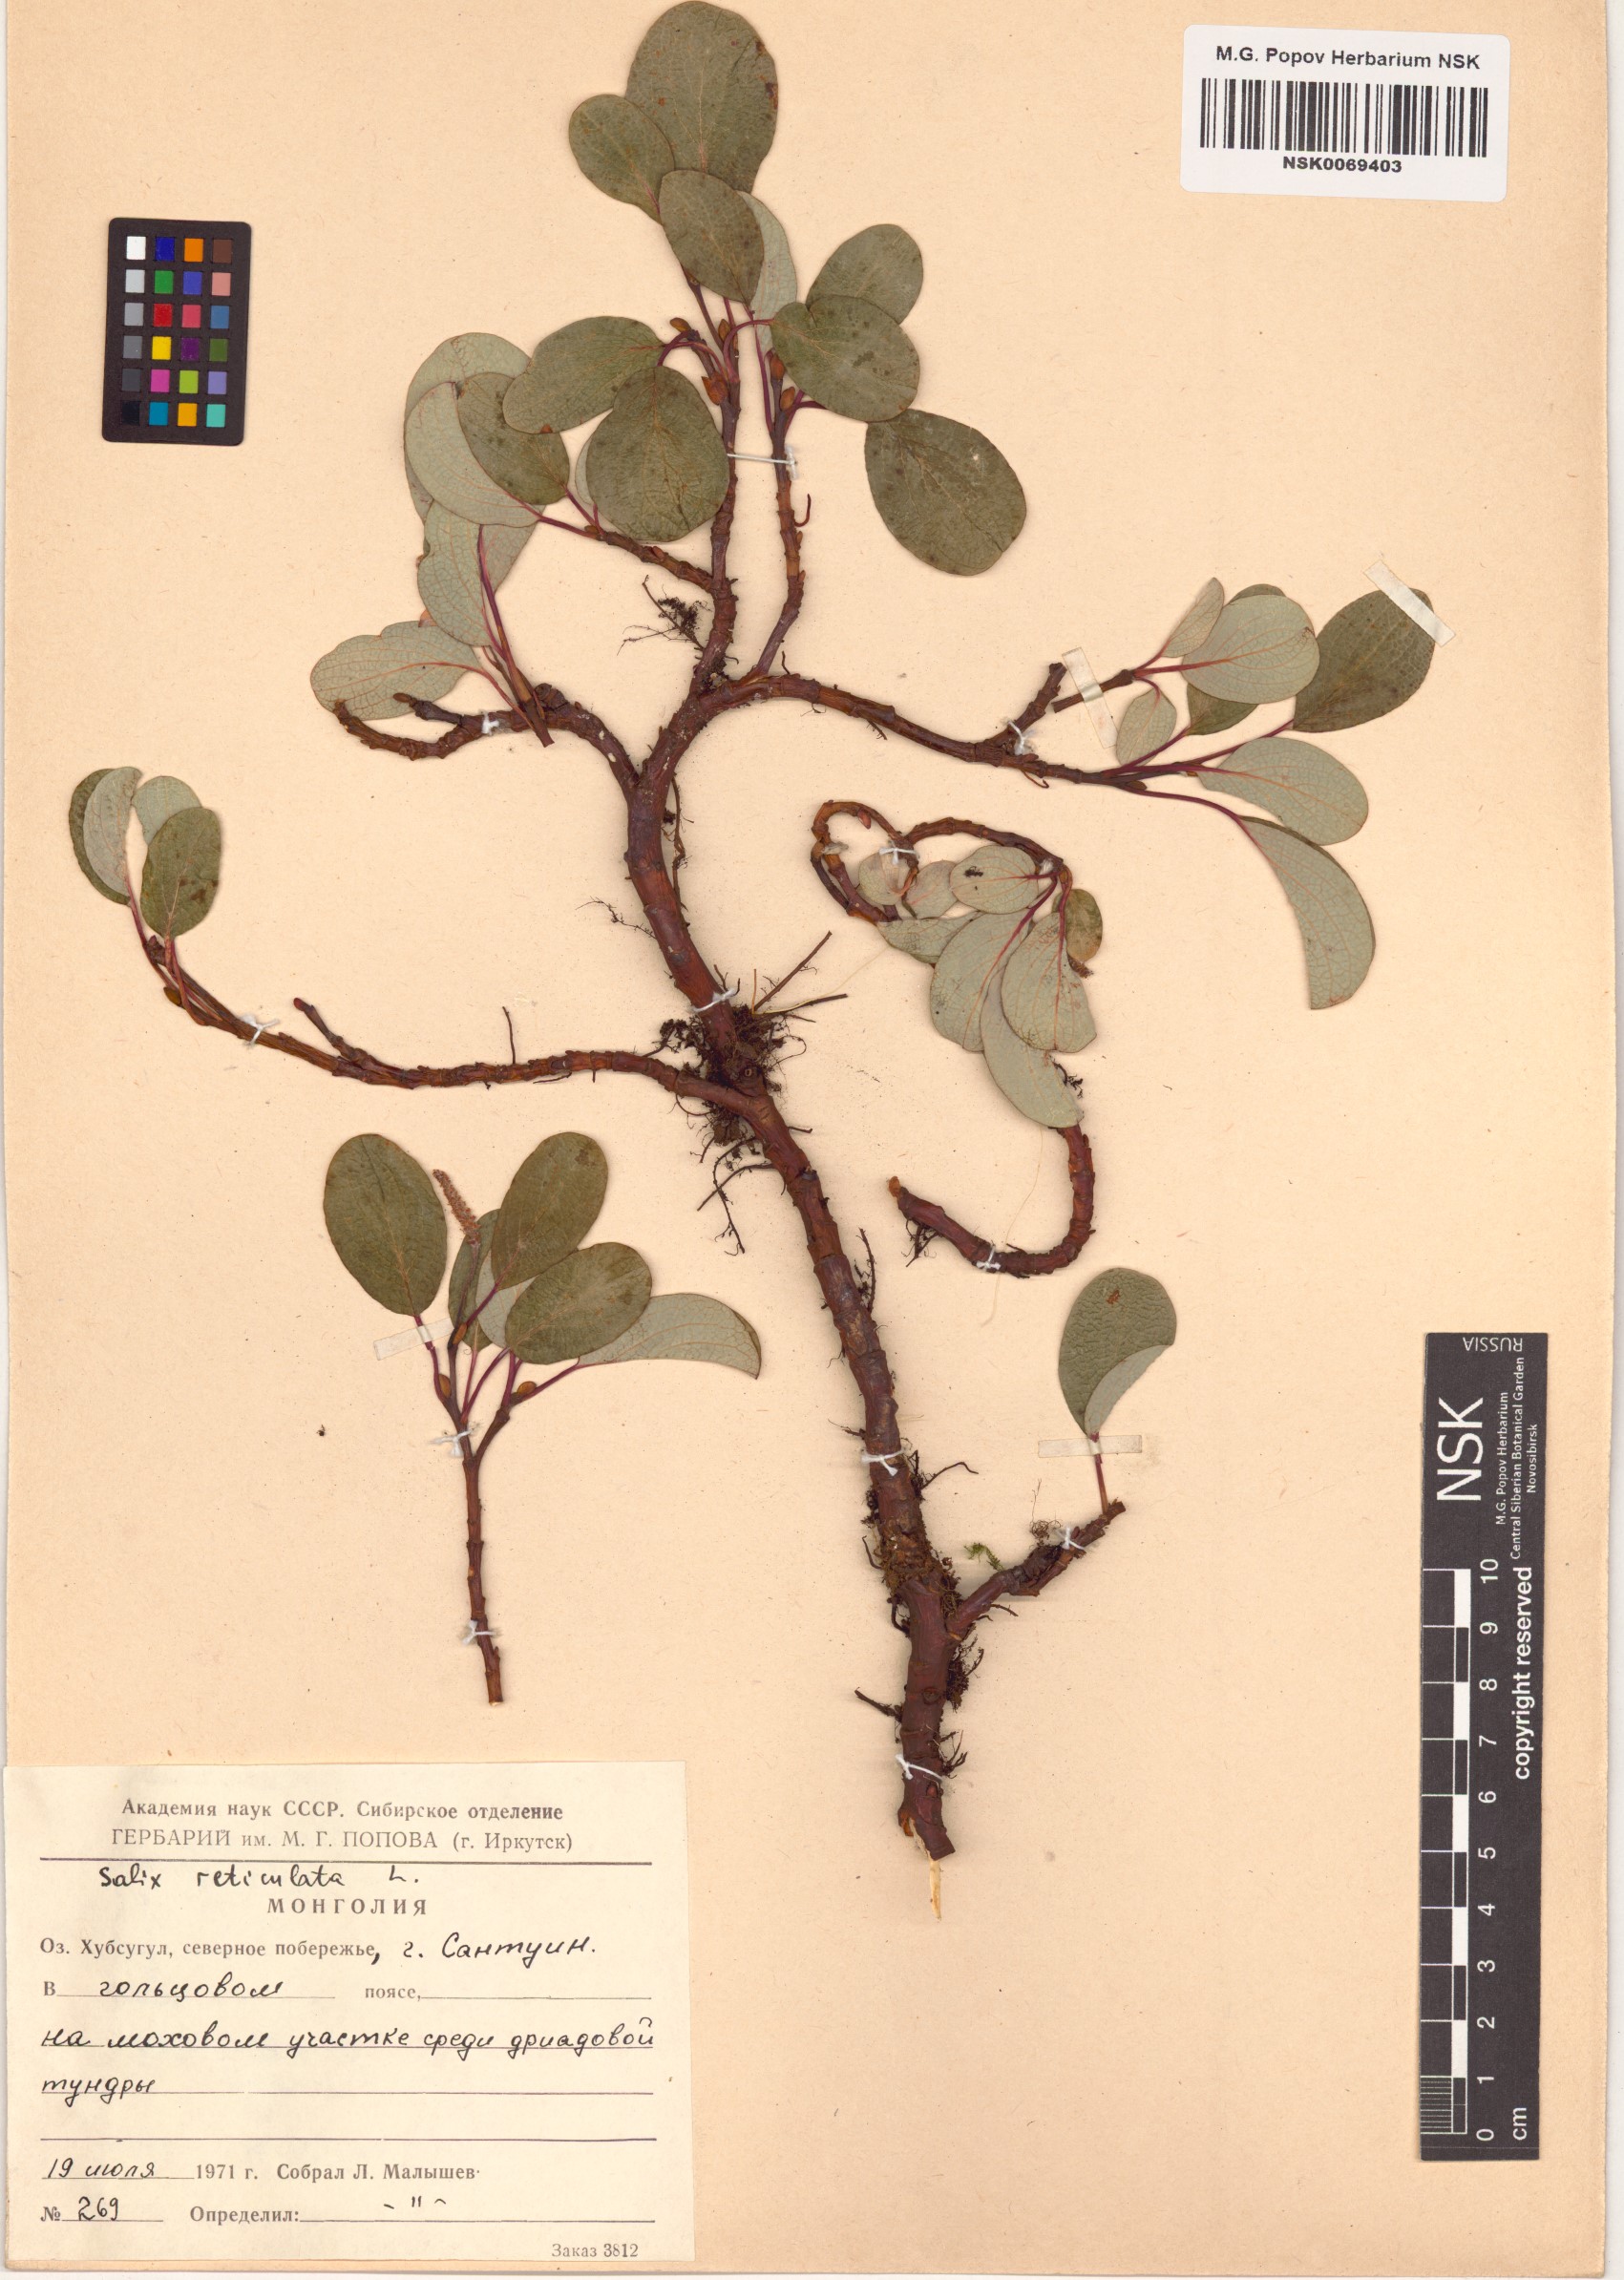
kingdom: Plantae
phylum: Tracheophyta
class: Magnoliopsida
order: Malpighiales
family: Salicaceae
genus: Salix
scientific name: Salix reticulata
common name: Net-leaved willow
